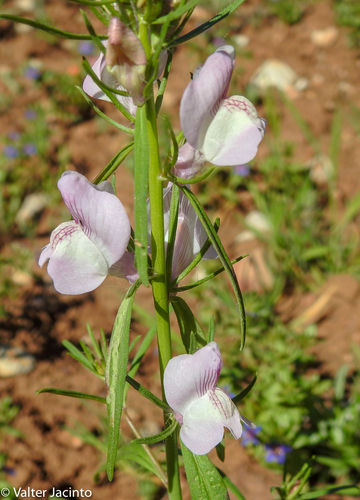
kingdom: Plantae
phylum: Tracheophyta
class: Magnoliopsida
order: Lamiales
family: Plantaginaceae
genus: Misopates
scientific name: Misopates calycinum
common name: Pale weasel's-snout
